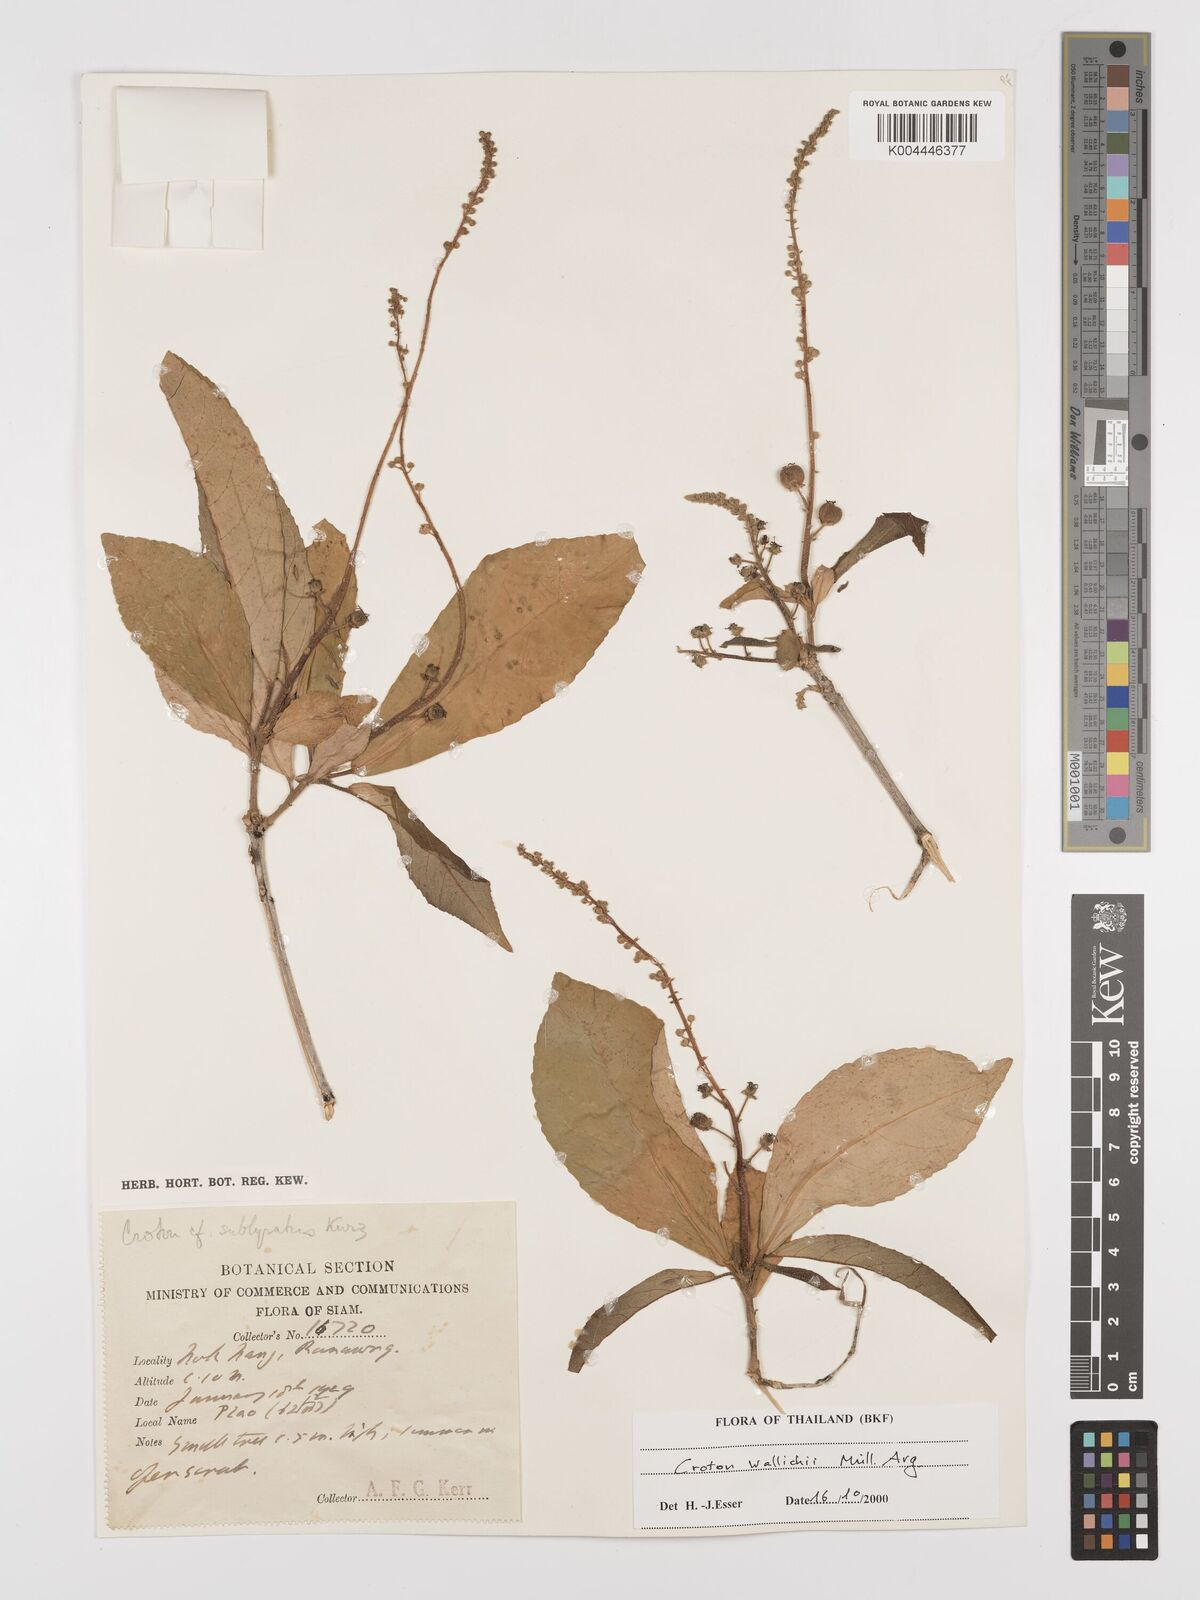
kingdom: Plantae
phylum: Tracheophyta
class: Magnoliopsida
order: Malpighiales
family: Euphorbiaceae
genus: Croton
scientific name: Croton wallichii
